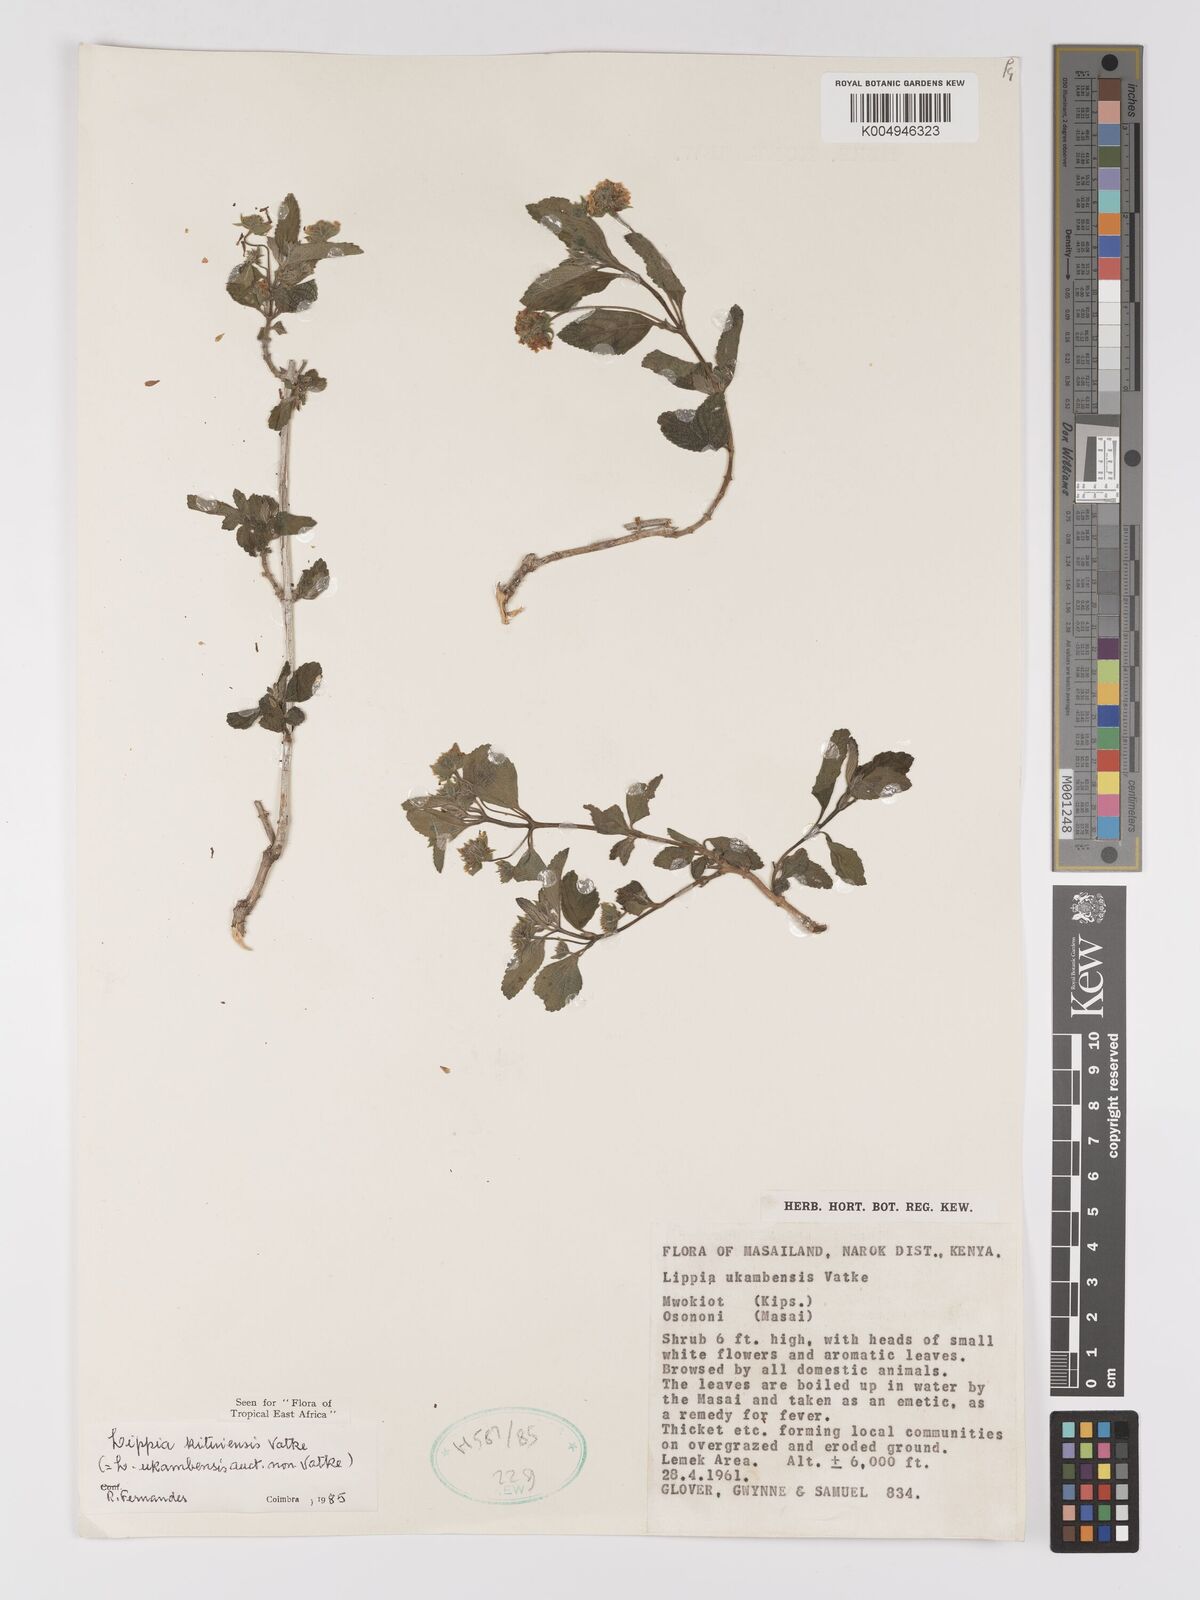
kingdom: Plantae
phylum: Tracheophyta
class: Magnoliopsida
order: Lamiales
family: Verbenaceae
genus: Lantana
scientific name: Lantana ukambensis
